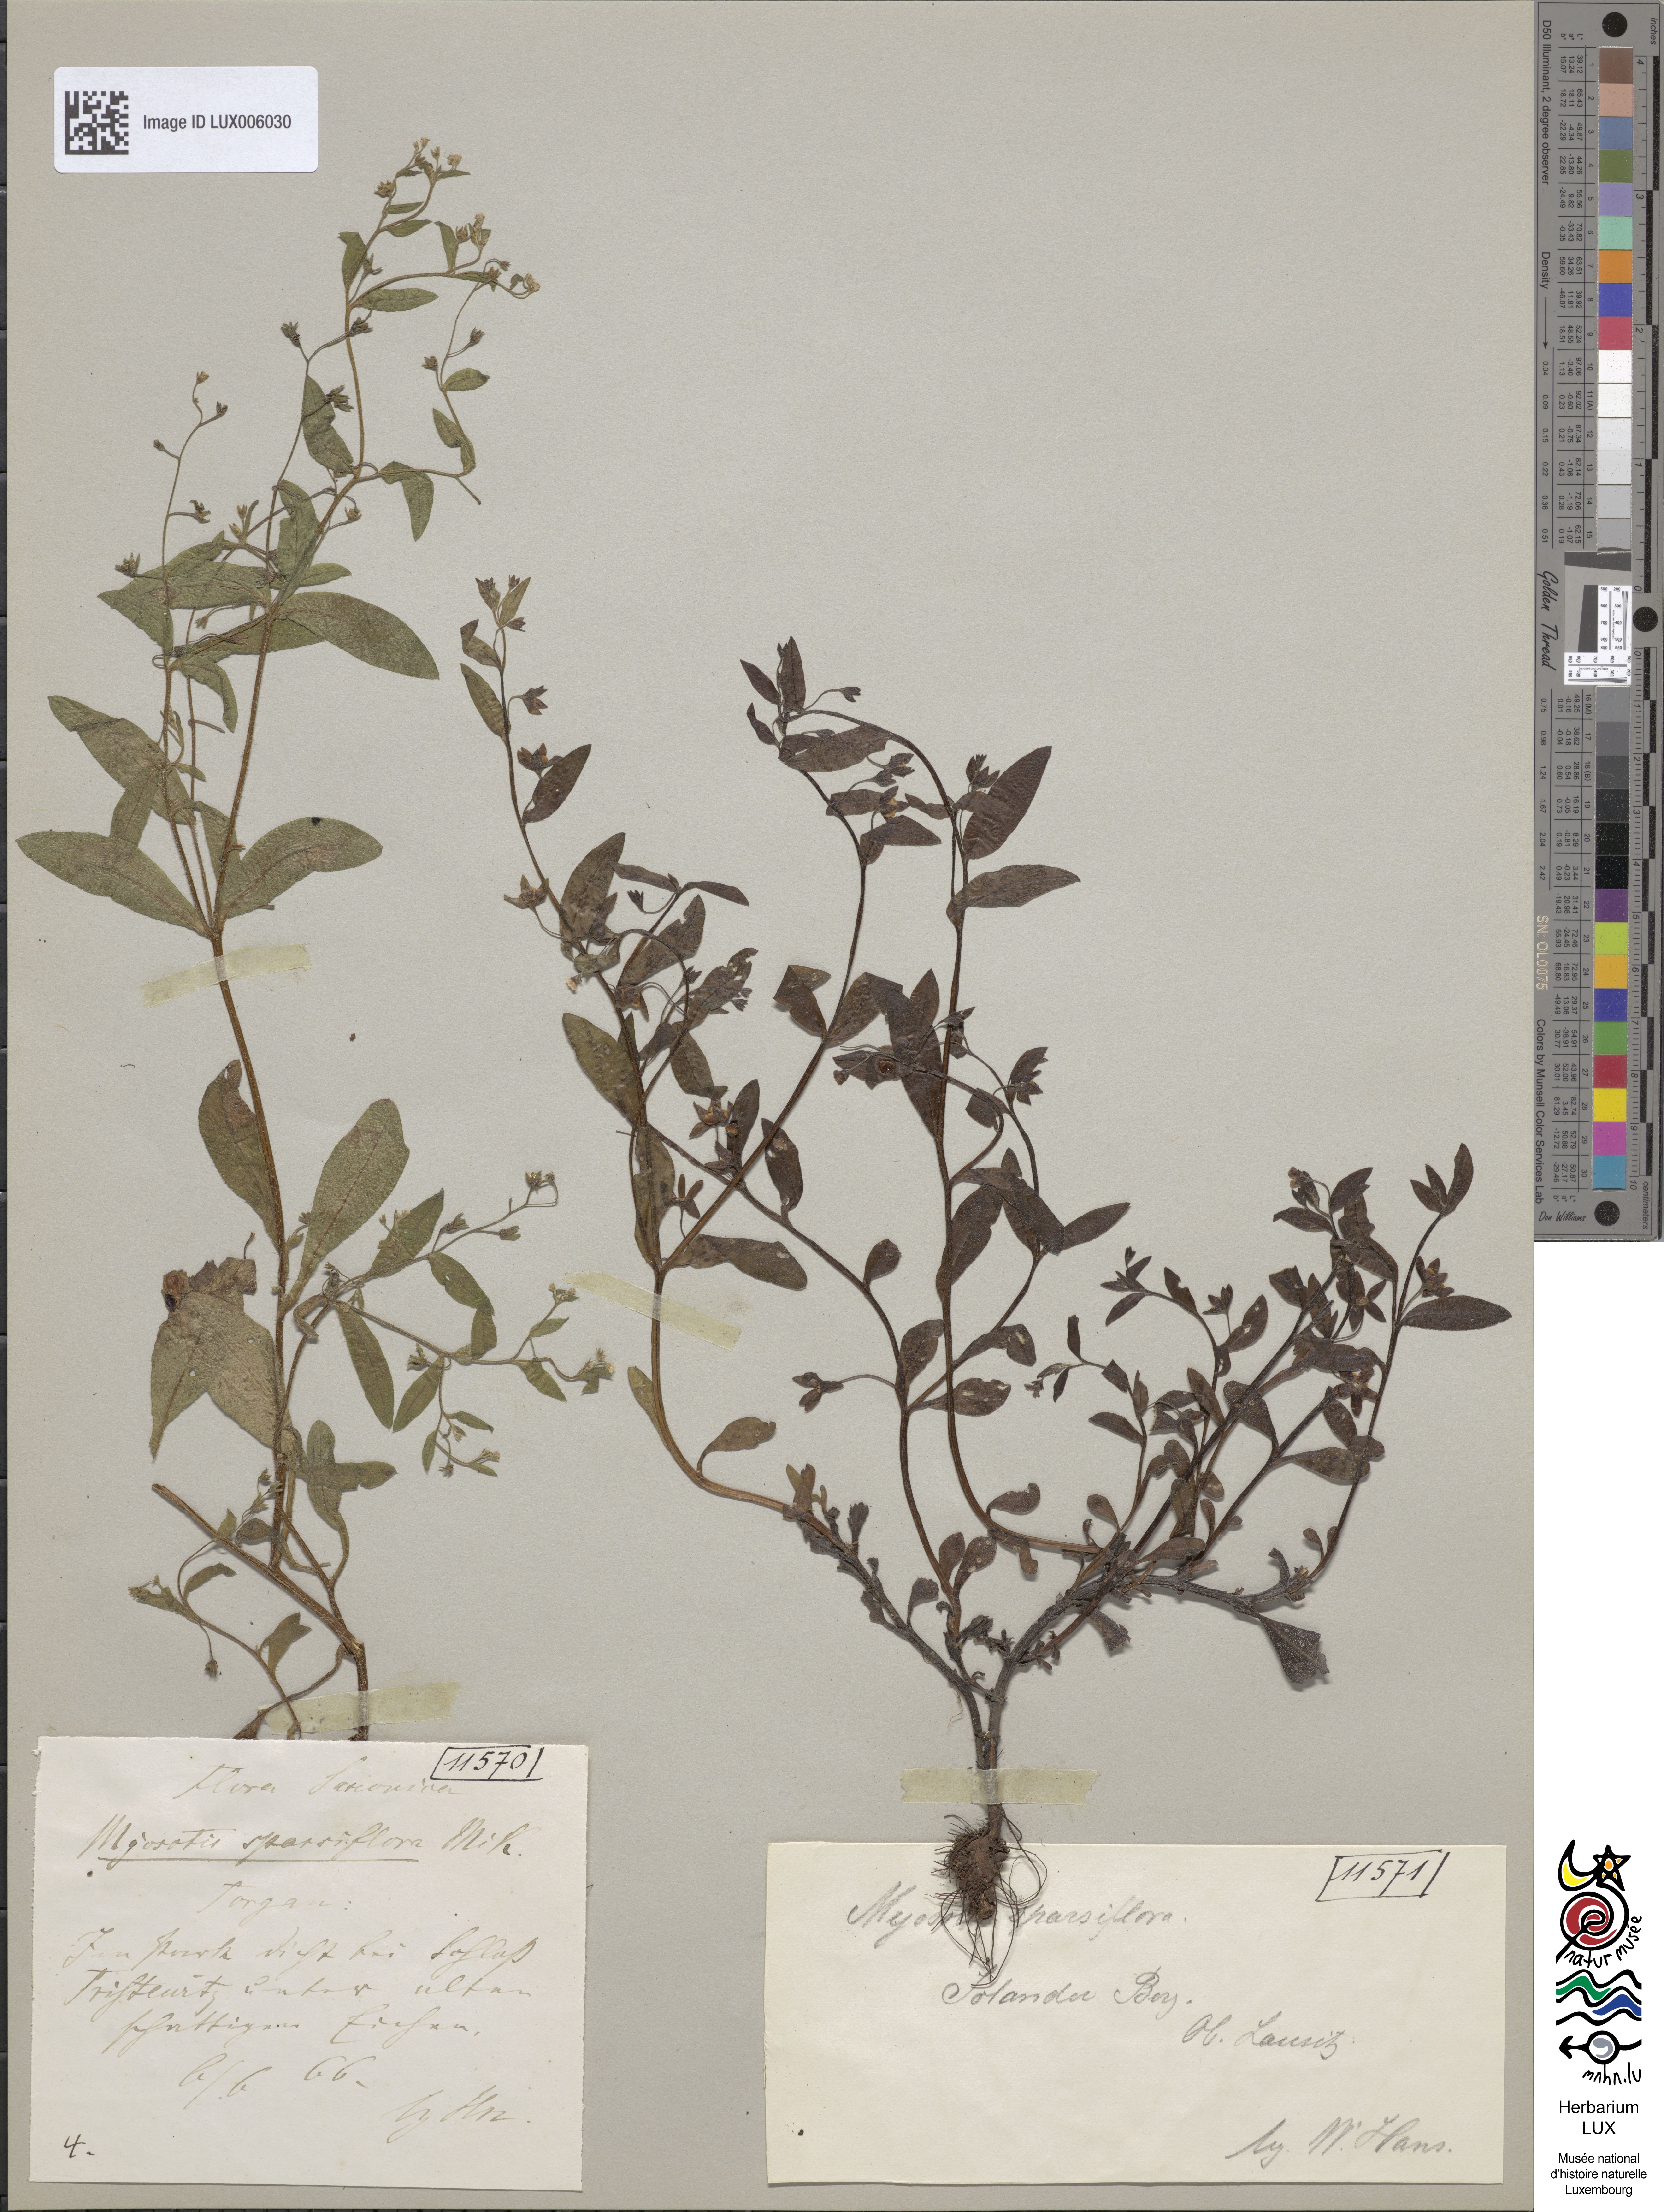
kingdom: Plantae
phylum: Tracheophyta
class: Magnoliopsida
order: Boraginales
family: Boraginaceae
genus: Myosotis
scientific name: Myosotis sparsiflora
